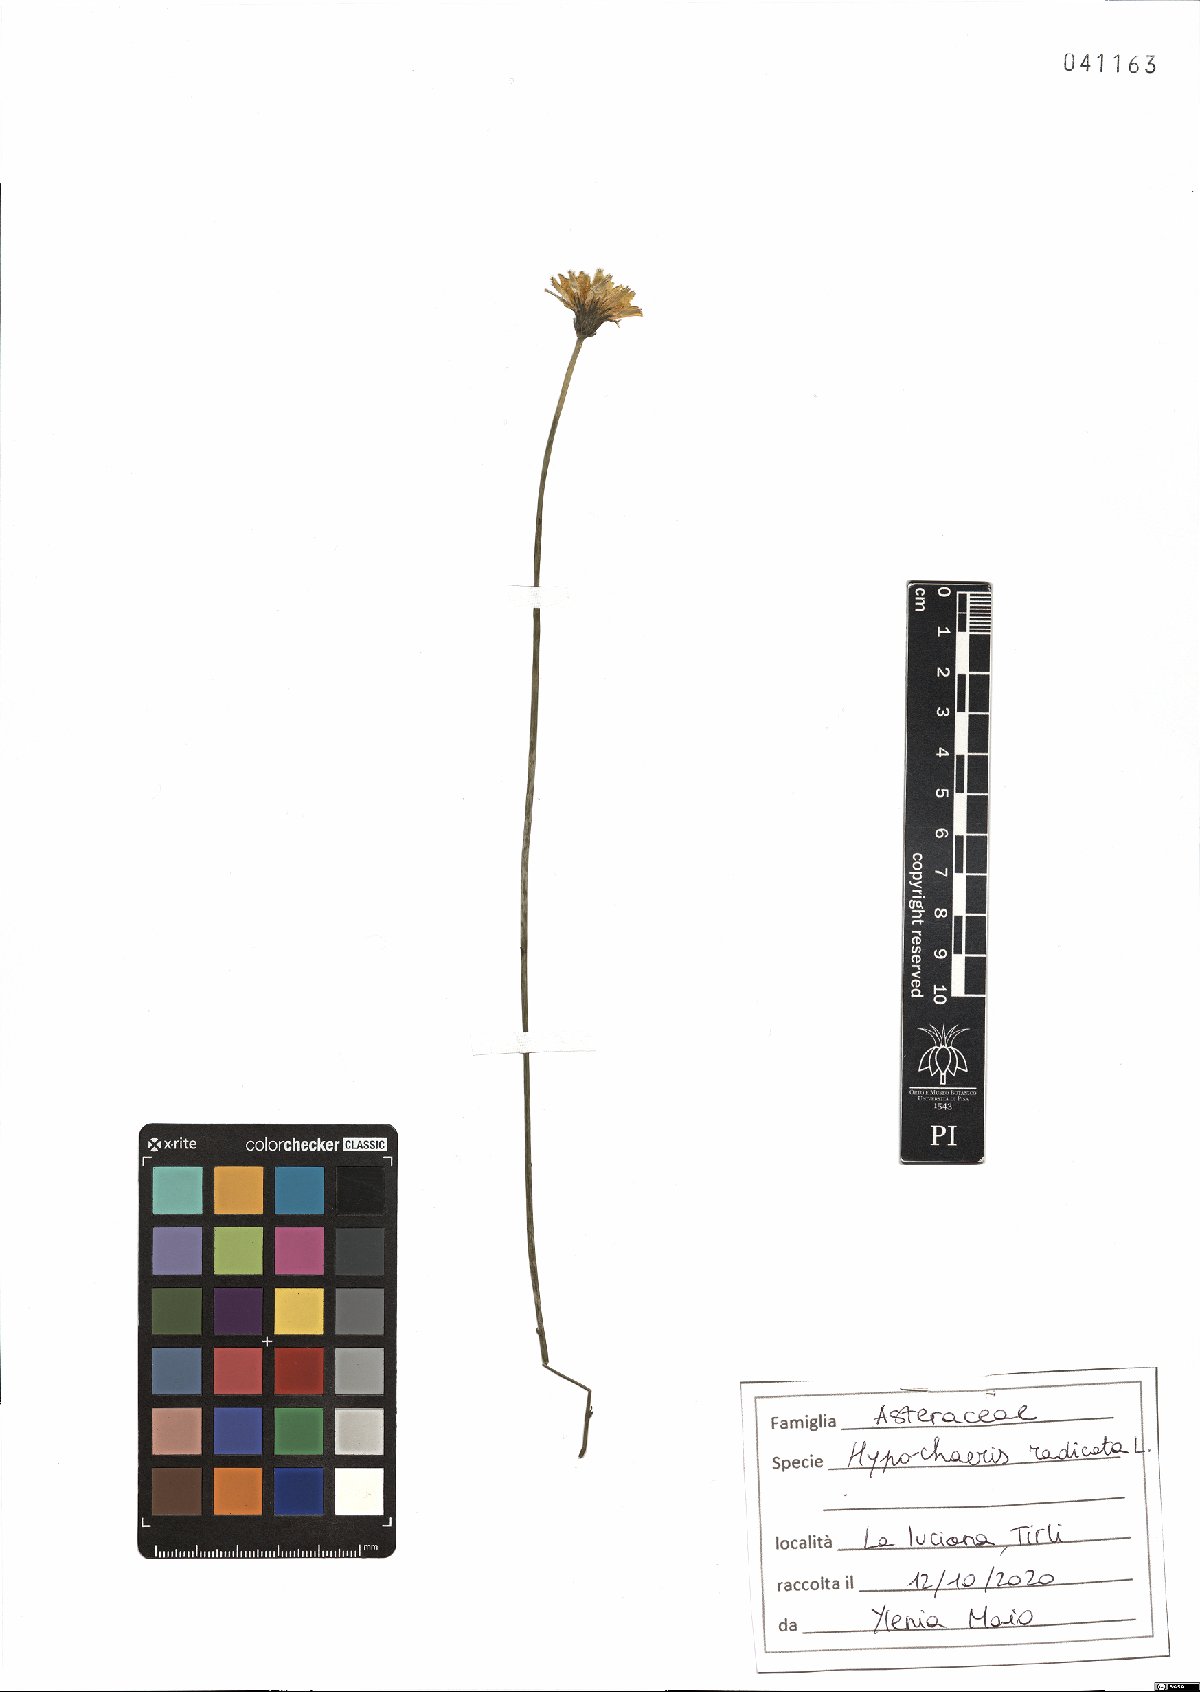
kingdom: Plantae
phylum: Tracheophyta
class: Magnoliopsida
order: Asterales
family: Asteraceae
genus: Hypochaeris
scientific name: Hypochaeris radicata
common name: Flatweed
